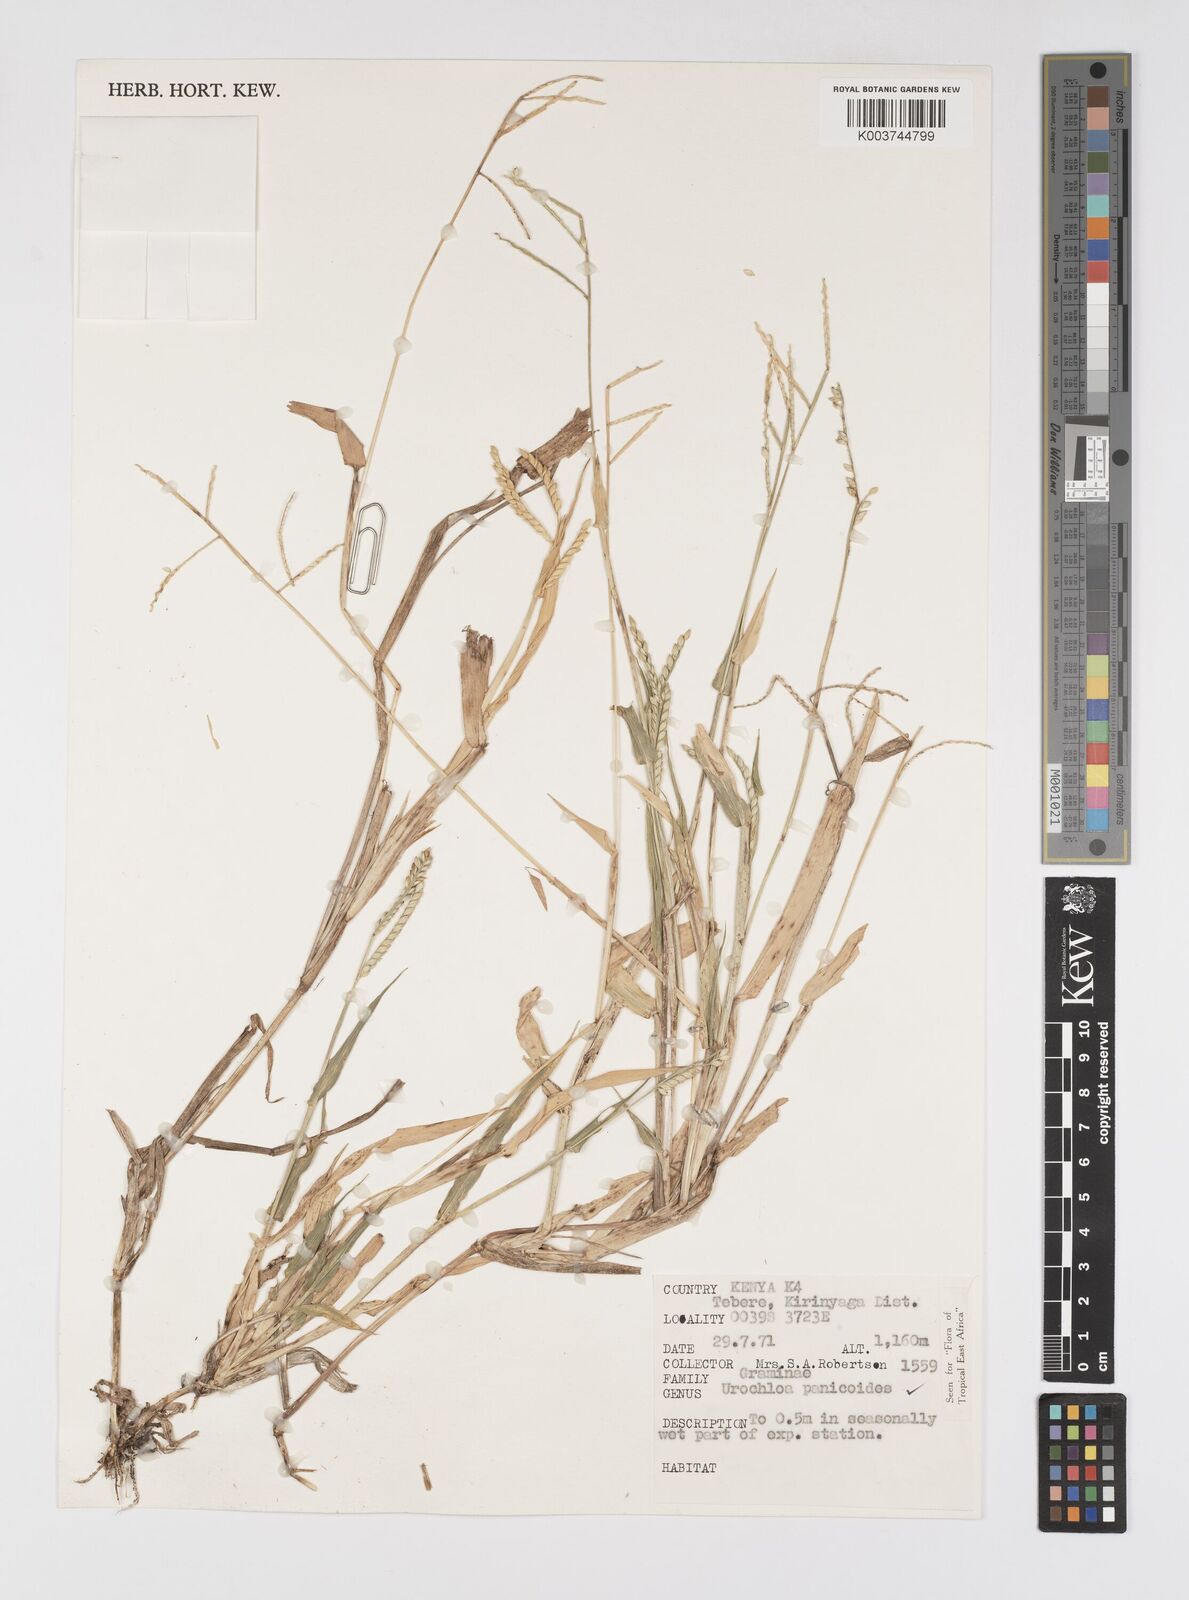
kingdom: Plantae
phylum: Tracheophyta
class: Liliopsida
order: Poales
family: Poaceae
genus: Urochloa
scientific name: Urochloa panicoides
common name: Sharp-flowered signal-grass
